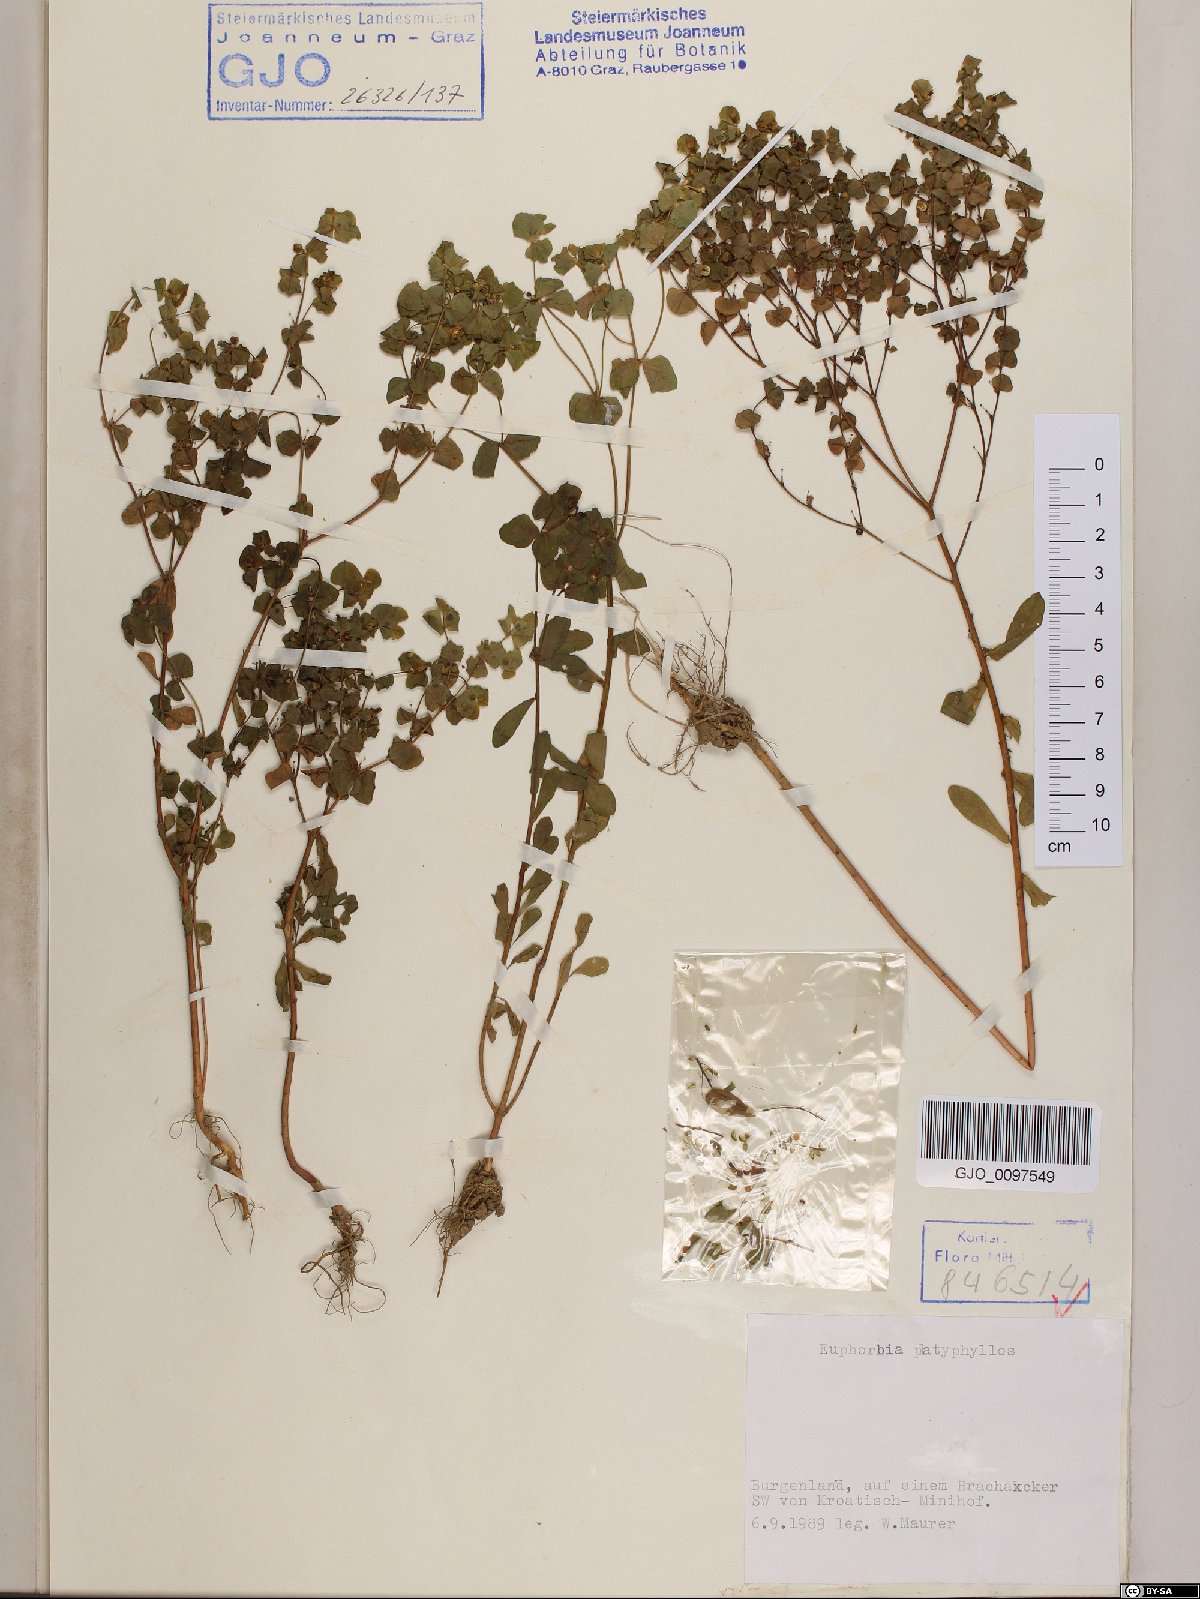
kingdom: Plantae
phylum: Tracheophyta
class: Magnoliopsida
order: Malpighiales
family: Euphorbiaceae
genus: Euphorbia
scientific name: Euphorbia platyphyllos
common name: Broad-leaved spurge
